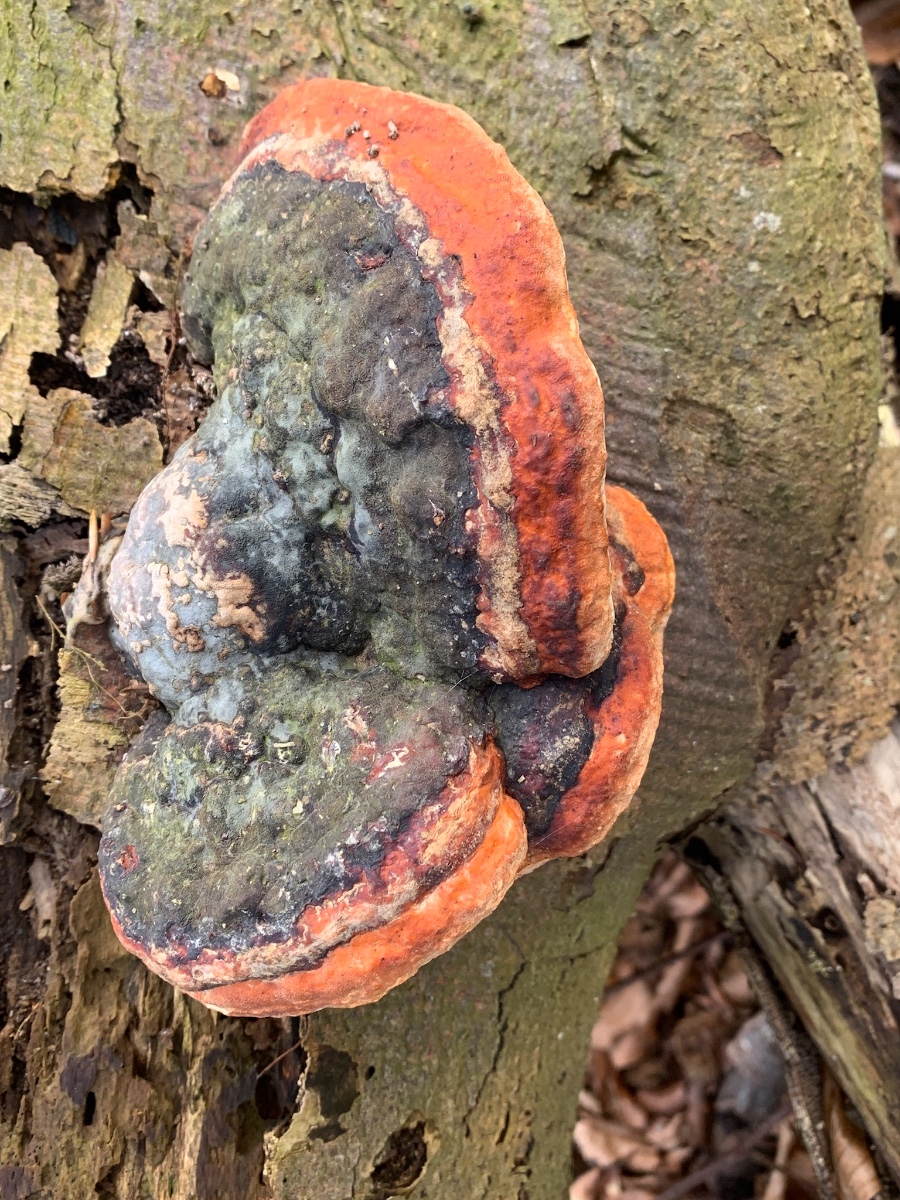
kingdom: Fungi
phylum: Basidiomycota
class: Agaricomycetes
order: Polyporales
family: Fomitopsidaceae
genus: Fomitopsis
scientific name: Fomitopsis pinicola
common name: randbæltet hovporesvamp
